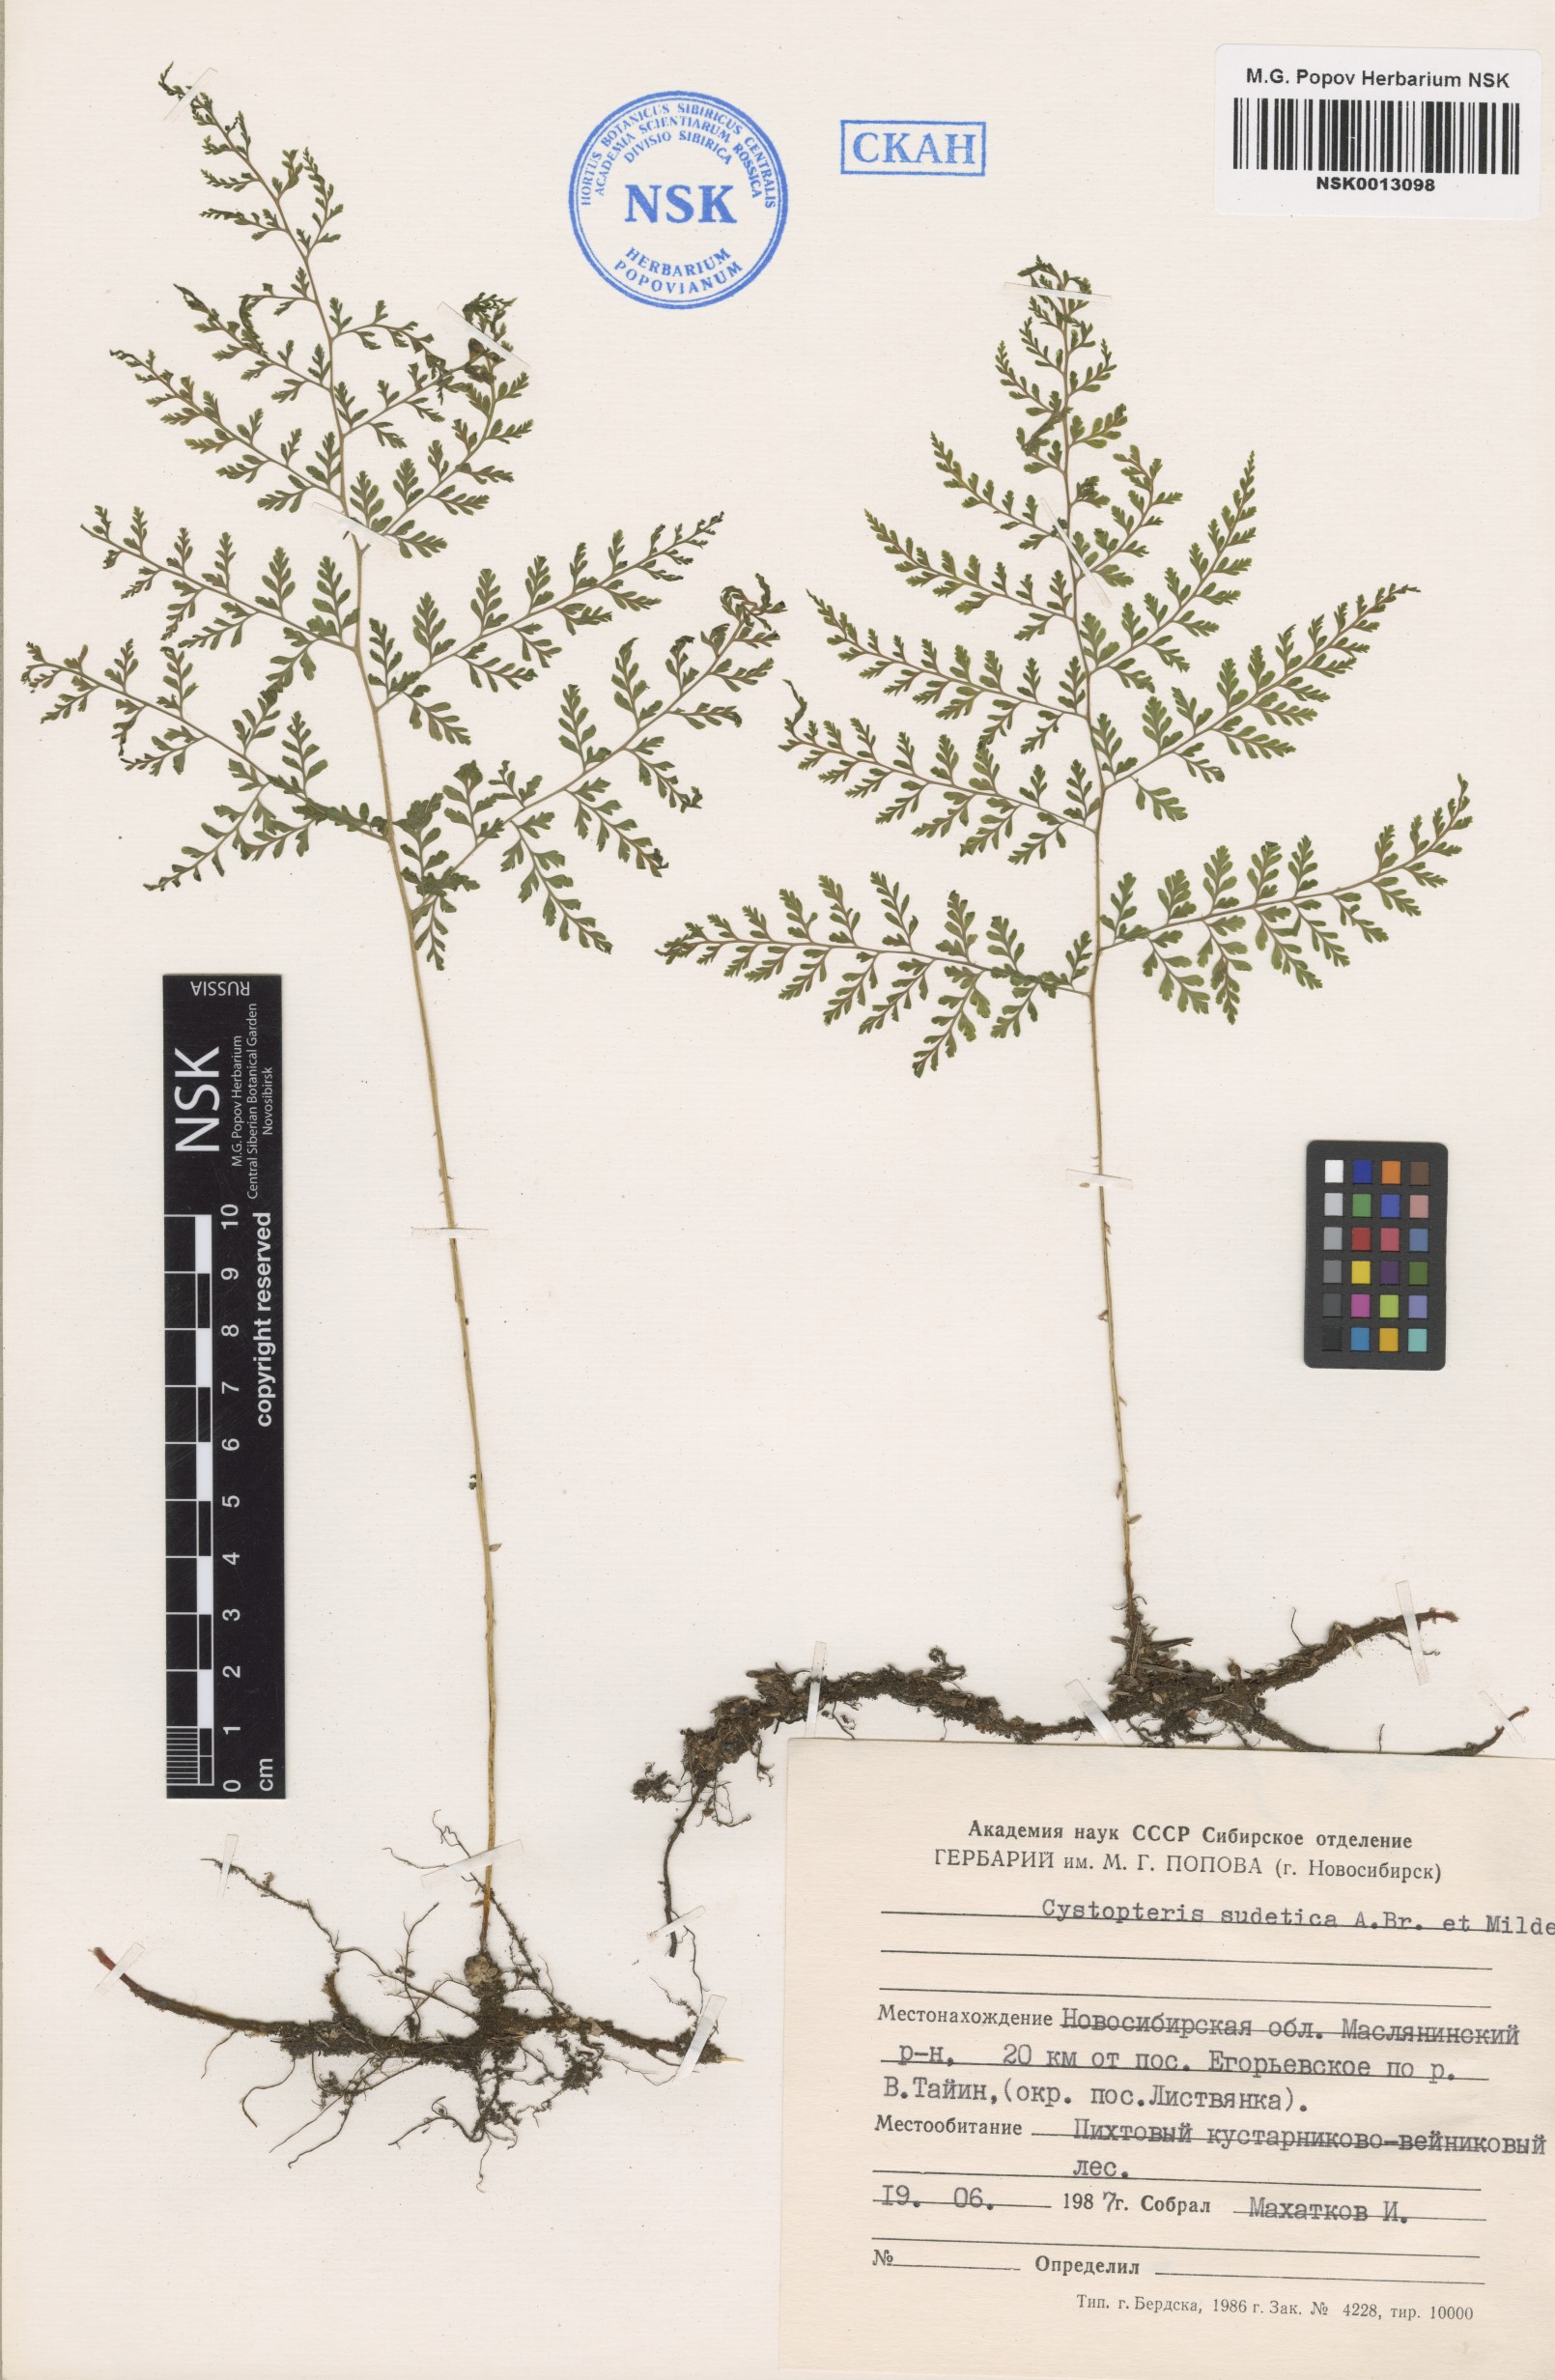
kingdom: Plantae
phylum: Tracheophyta
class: Polypodiopsida
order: Polypodiales
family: Cystopteridaceae
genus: Cystopteris
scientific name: Cystopteris sudetica
